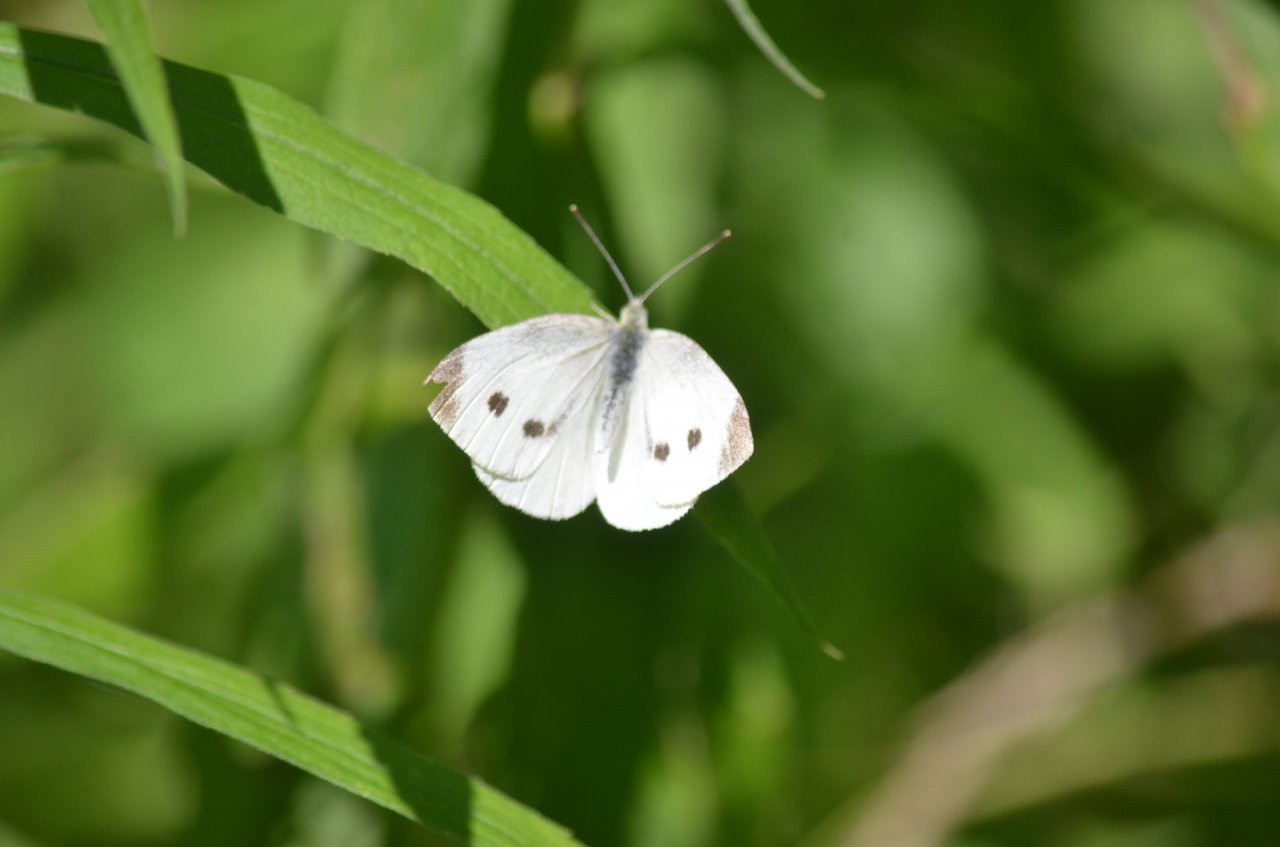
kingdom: Animalia
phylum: Arthropoda
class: Insecta
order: Lepidoptera
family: Pieridae
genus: Pieris
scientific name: Pieris rapae
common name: Cabbage White
